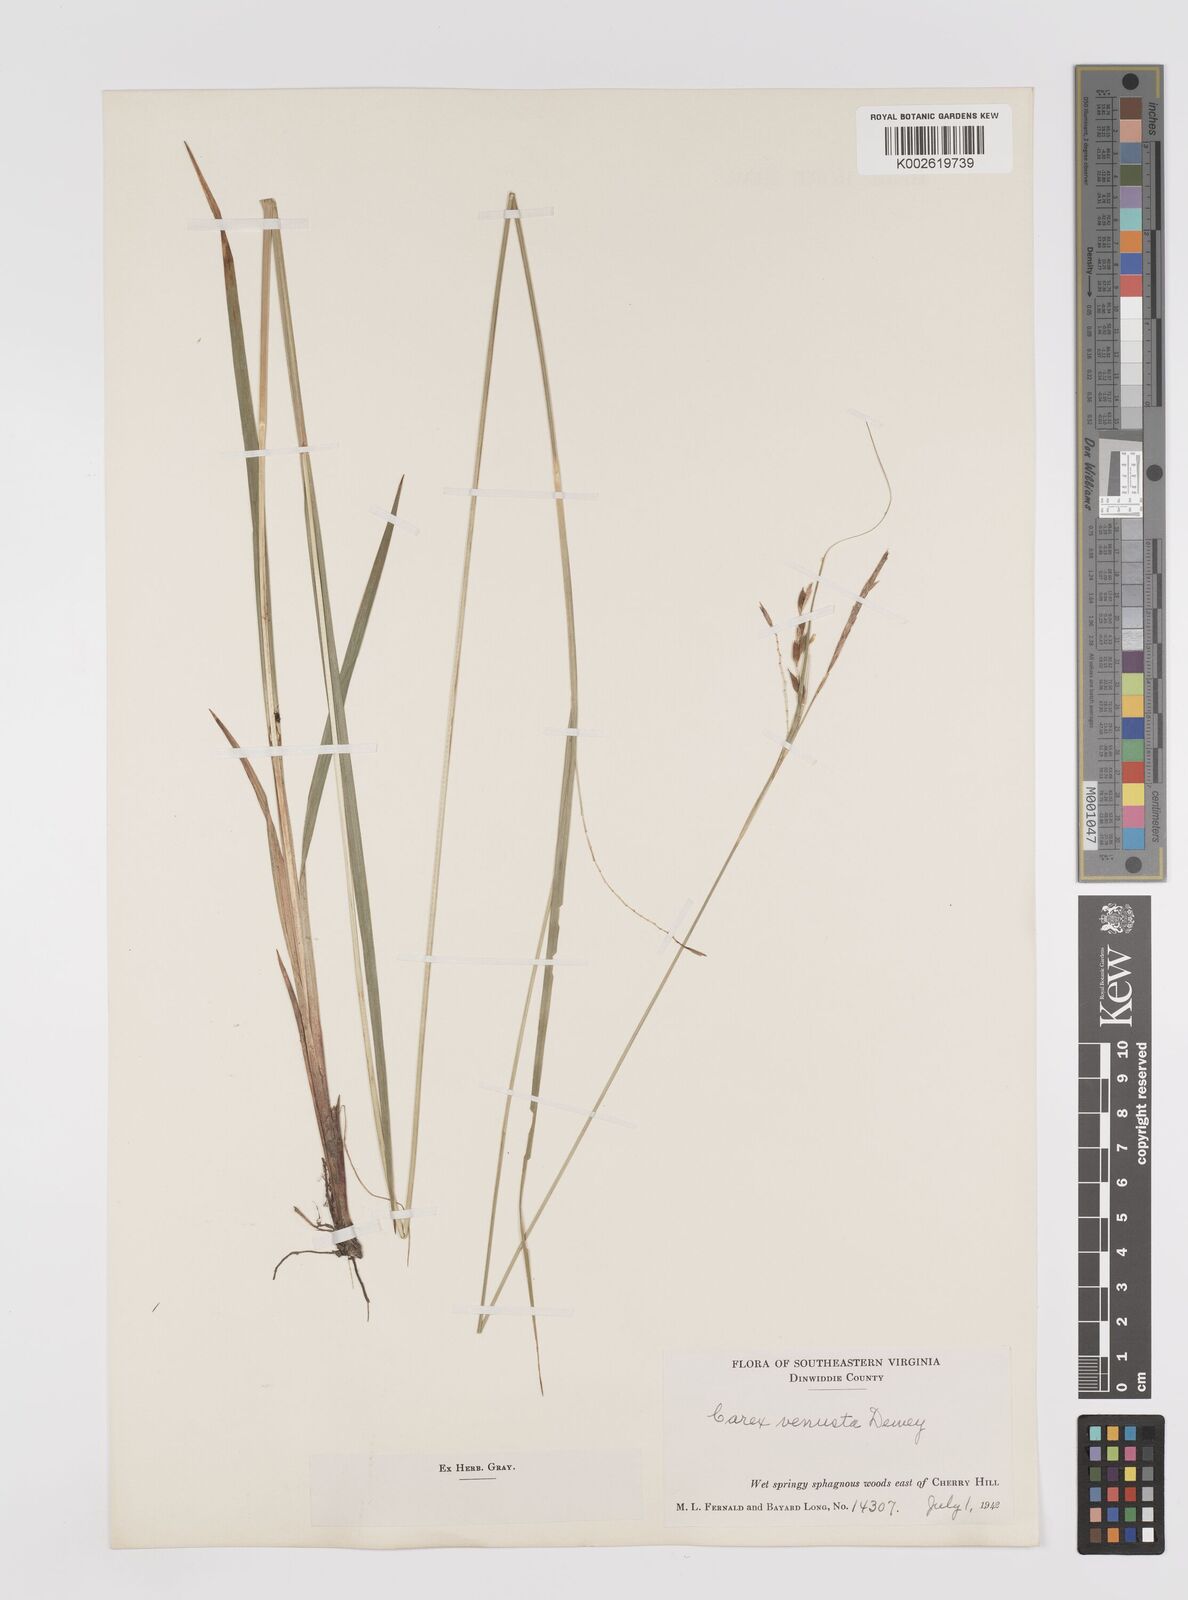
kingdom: Plantae
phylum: Tracheophyta
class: Liliopsida
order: Poales
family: Cyperaceae
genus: Carex
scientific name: Carex venusta
